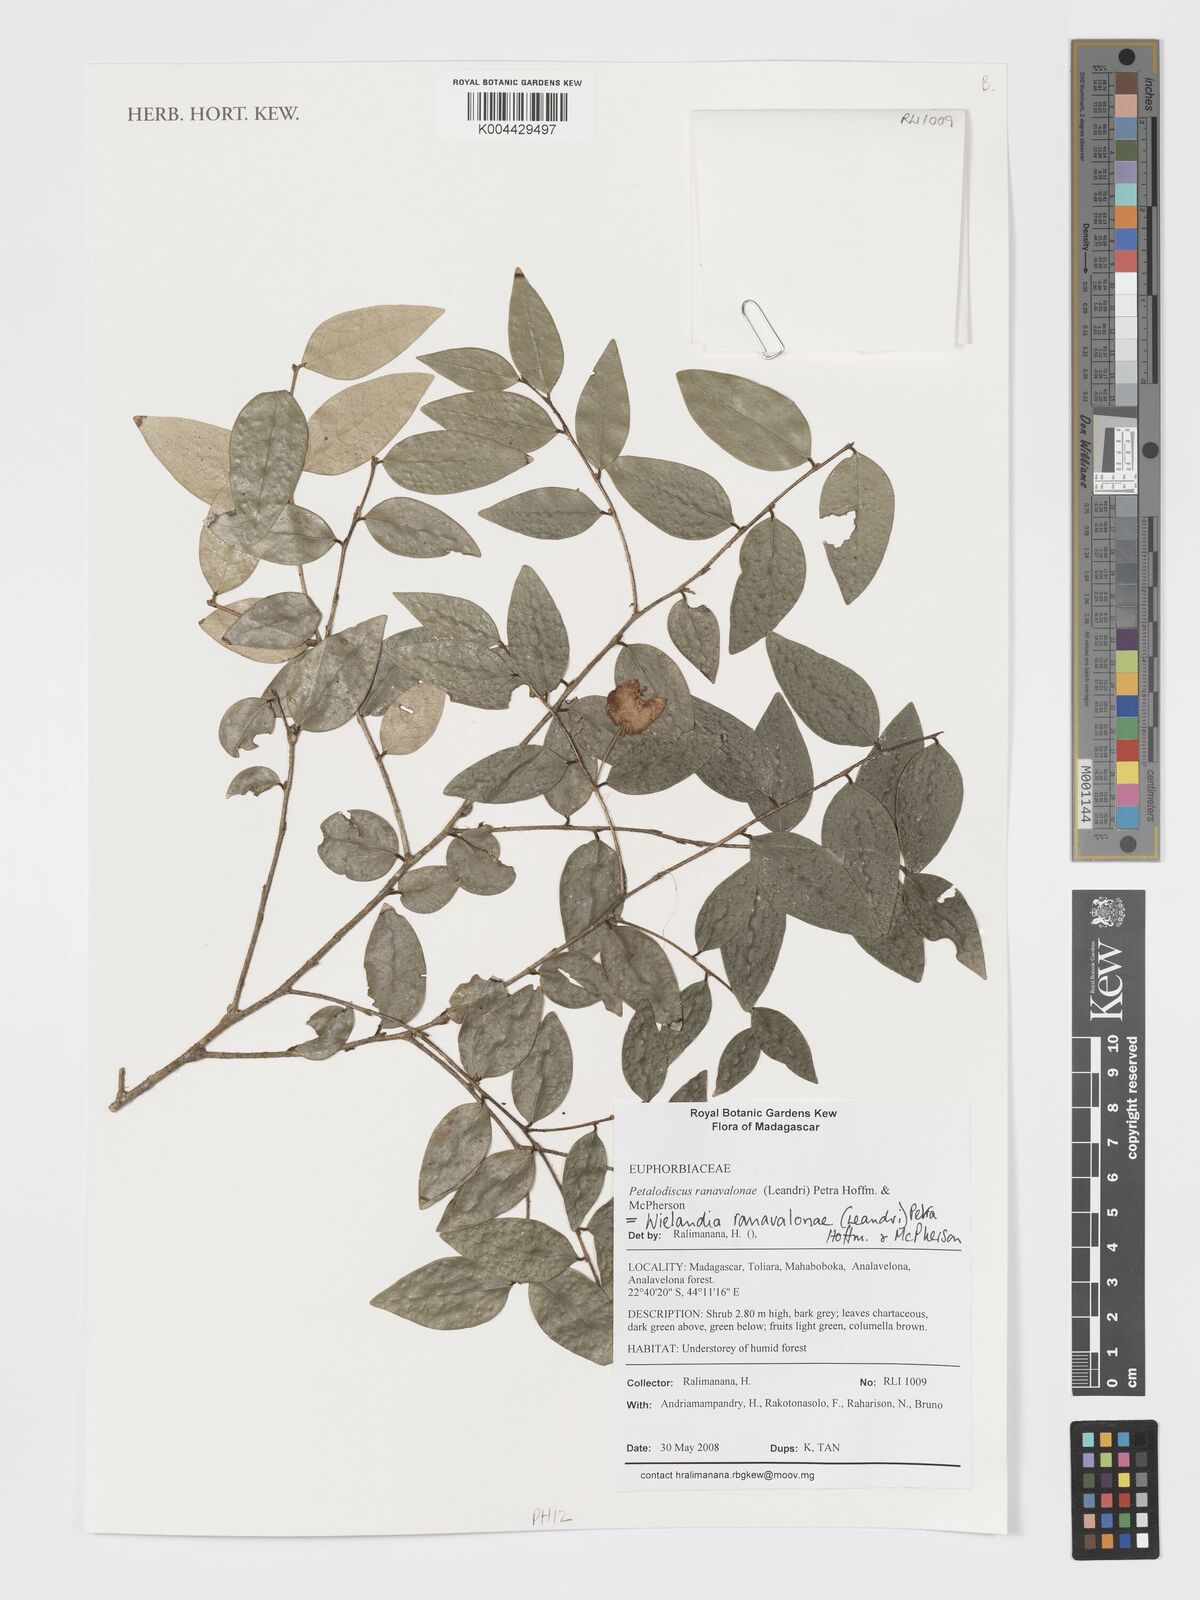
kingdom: Plantae
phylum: Tracheophyta
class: Magnoliopsida
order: Malpighiales
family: Phyllanthaceae
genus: Wielandia
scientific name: Wielandia ranavalonae
